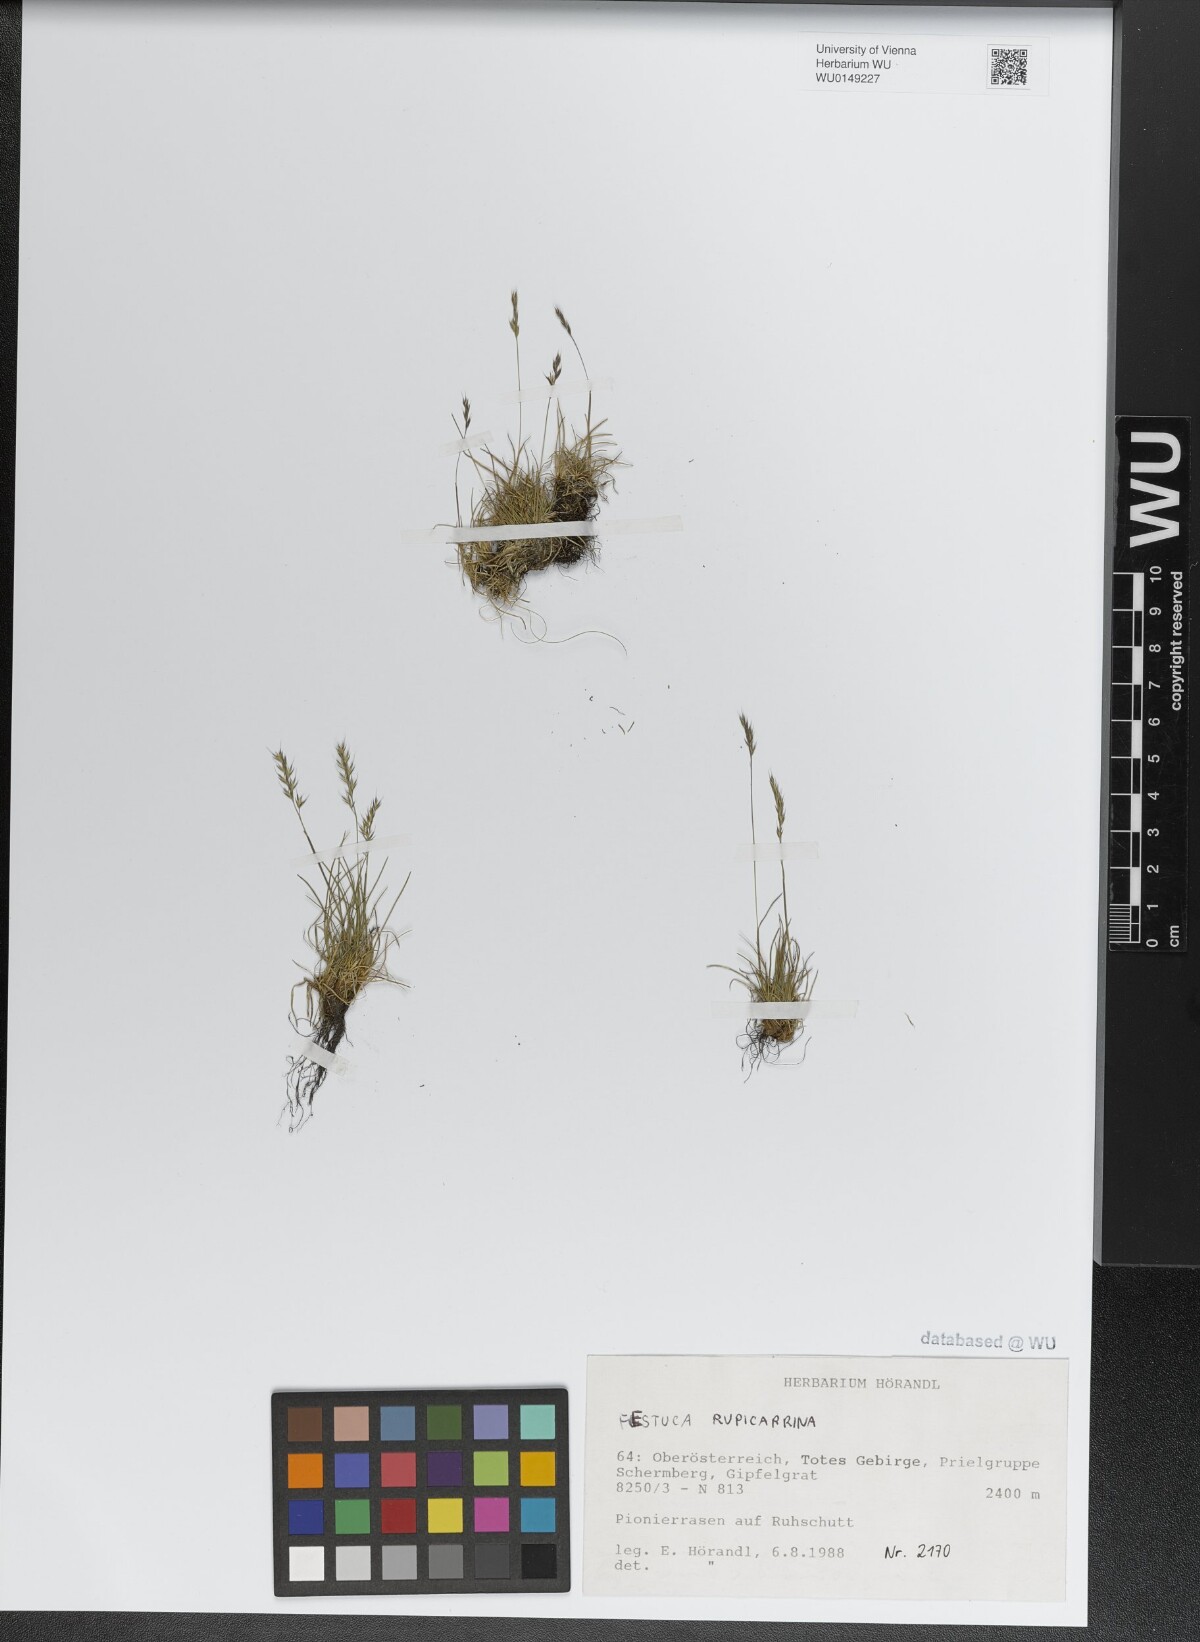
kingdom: Plantae
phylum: Tracheophyta
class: Liliopsida
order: Poales
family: Poaceae
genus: Festuca
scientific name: Festuca rupicaprina
